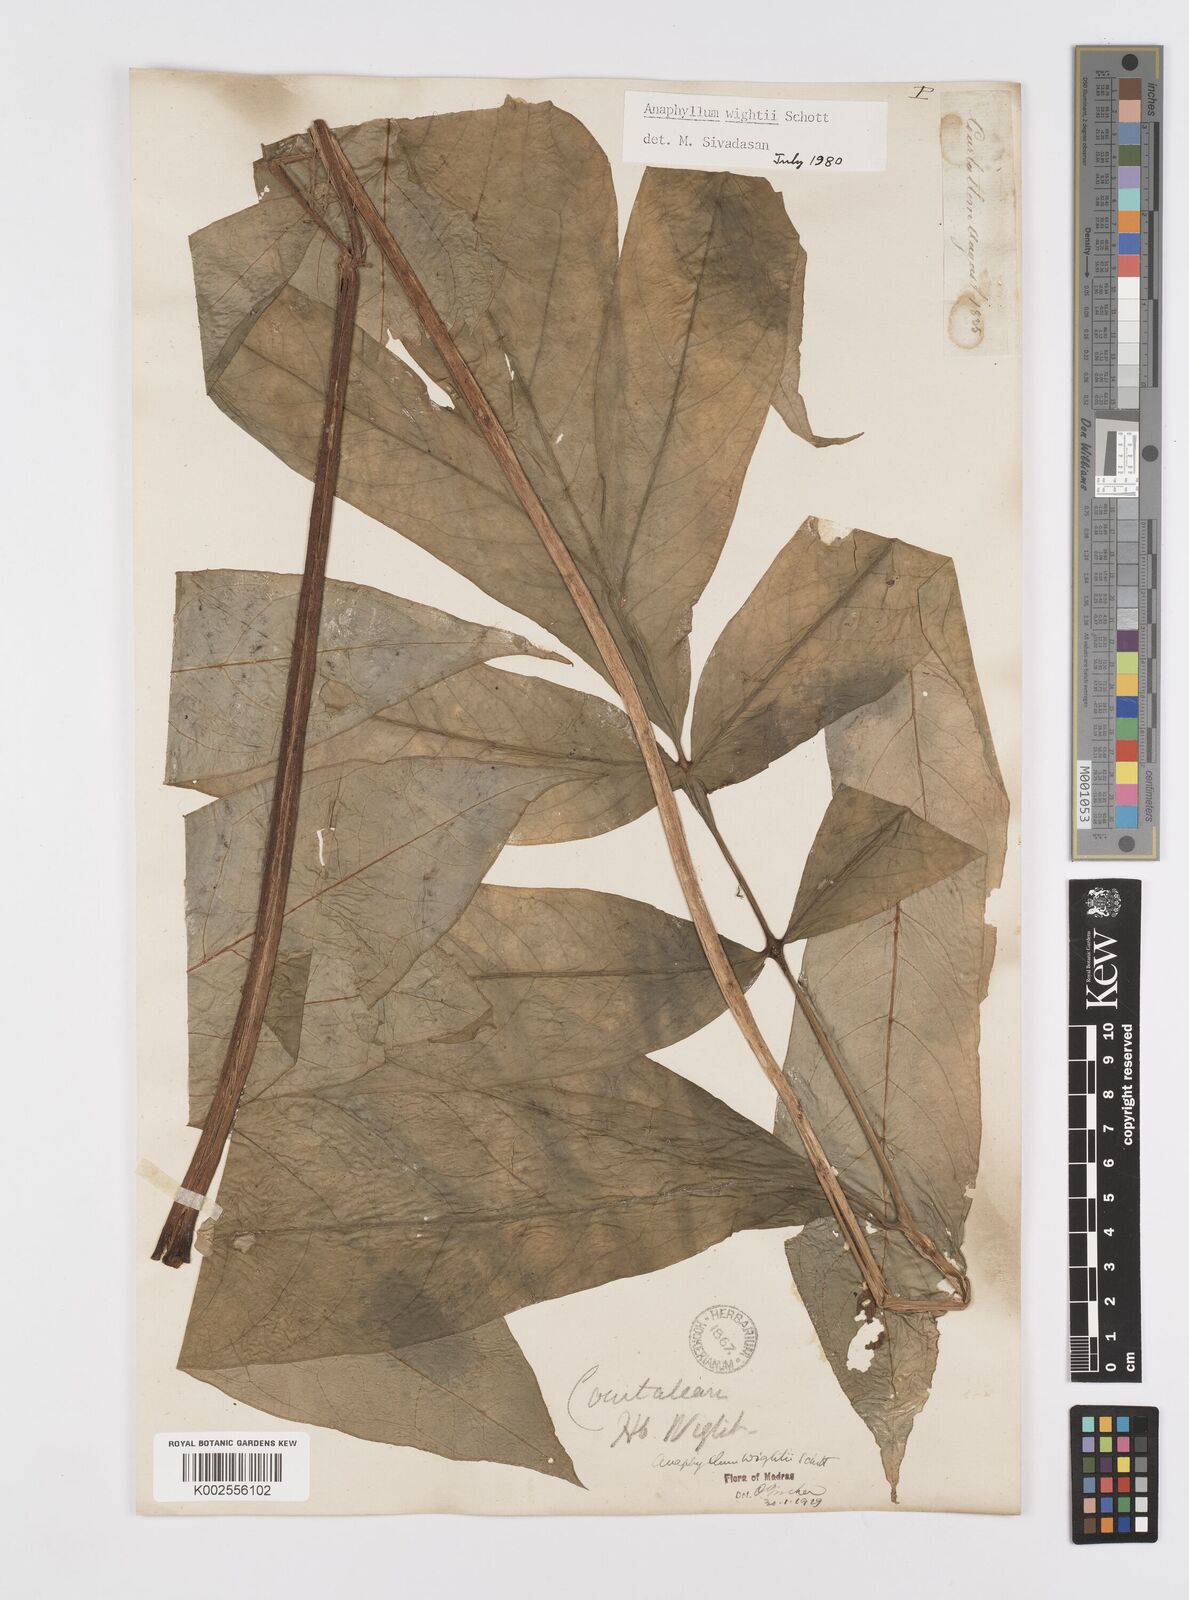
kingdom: Plantae
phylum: Tracheophyta
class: Liliopsida
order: Alismatales
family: Araceae
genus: Anaphyllum
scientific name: Anaphyllum wightii
